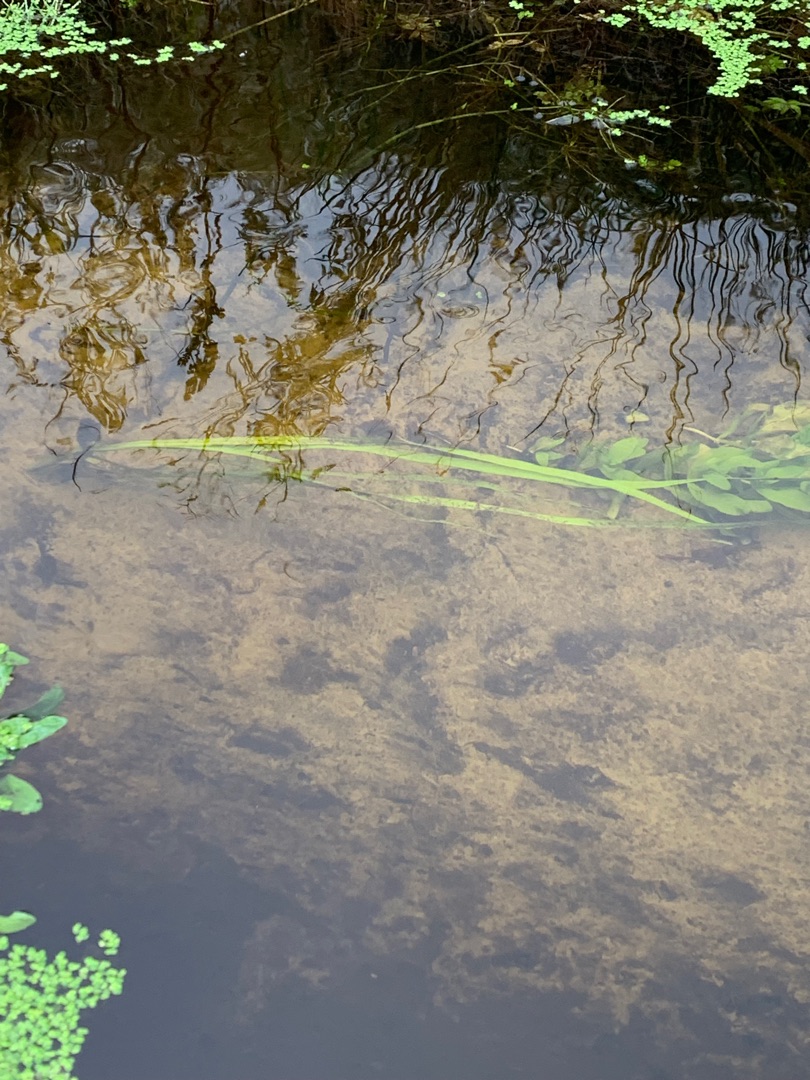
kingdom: Plantae
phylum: Tracheophyta
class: Liliopsida
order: Poales
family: Typhaceae
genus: Sparganium
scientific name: Sparganium emersum
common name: Enkelt pindsvineknop
